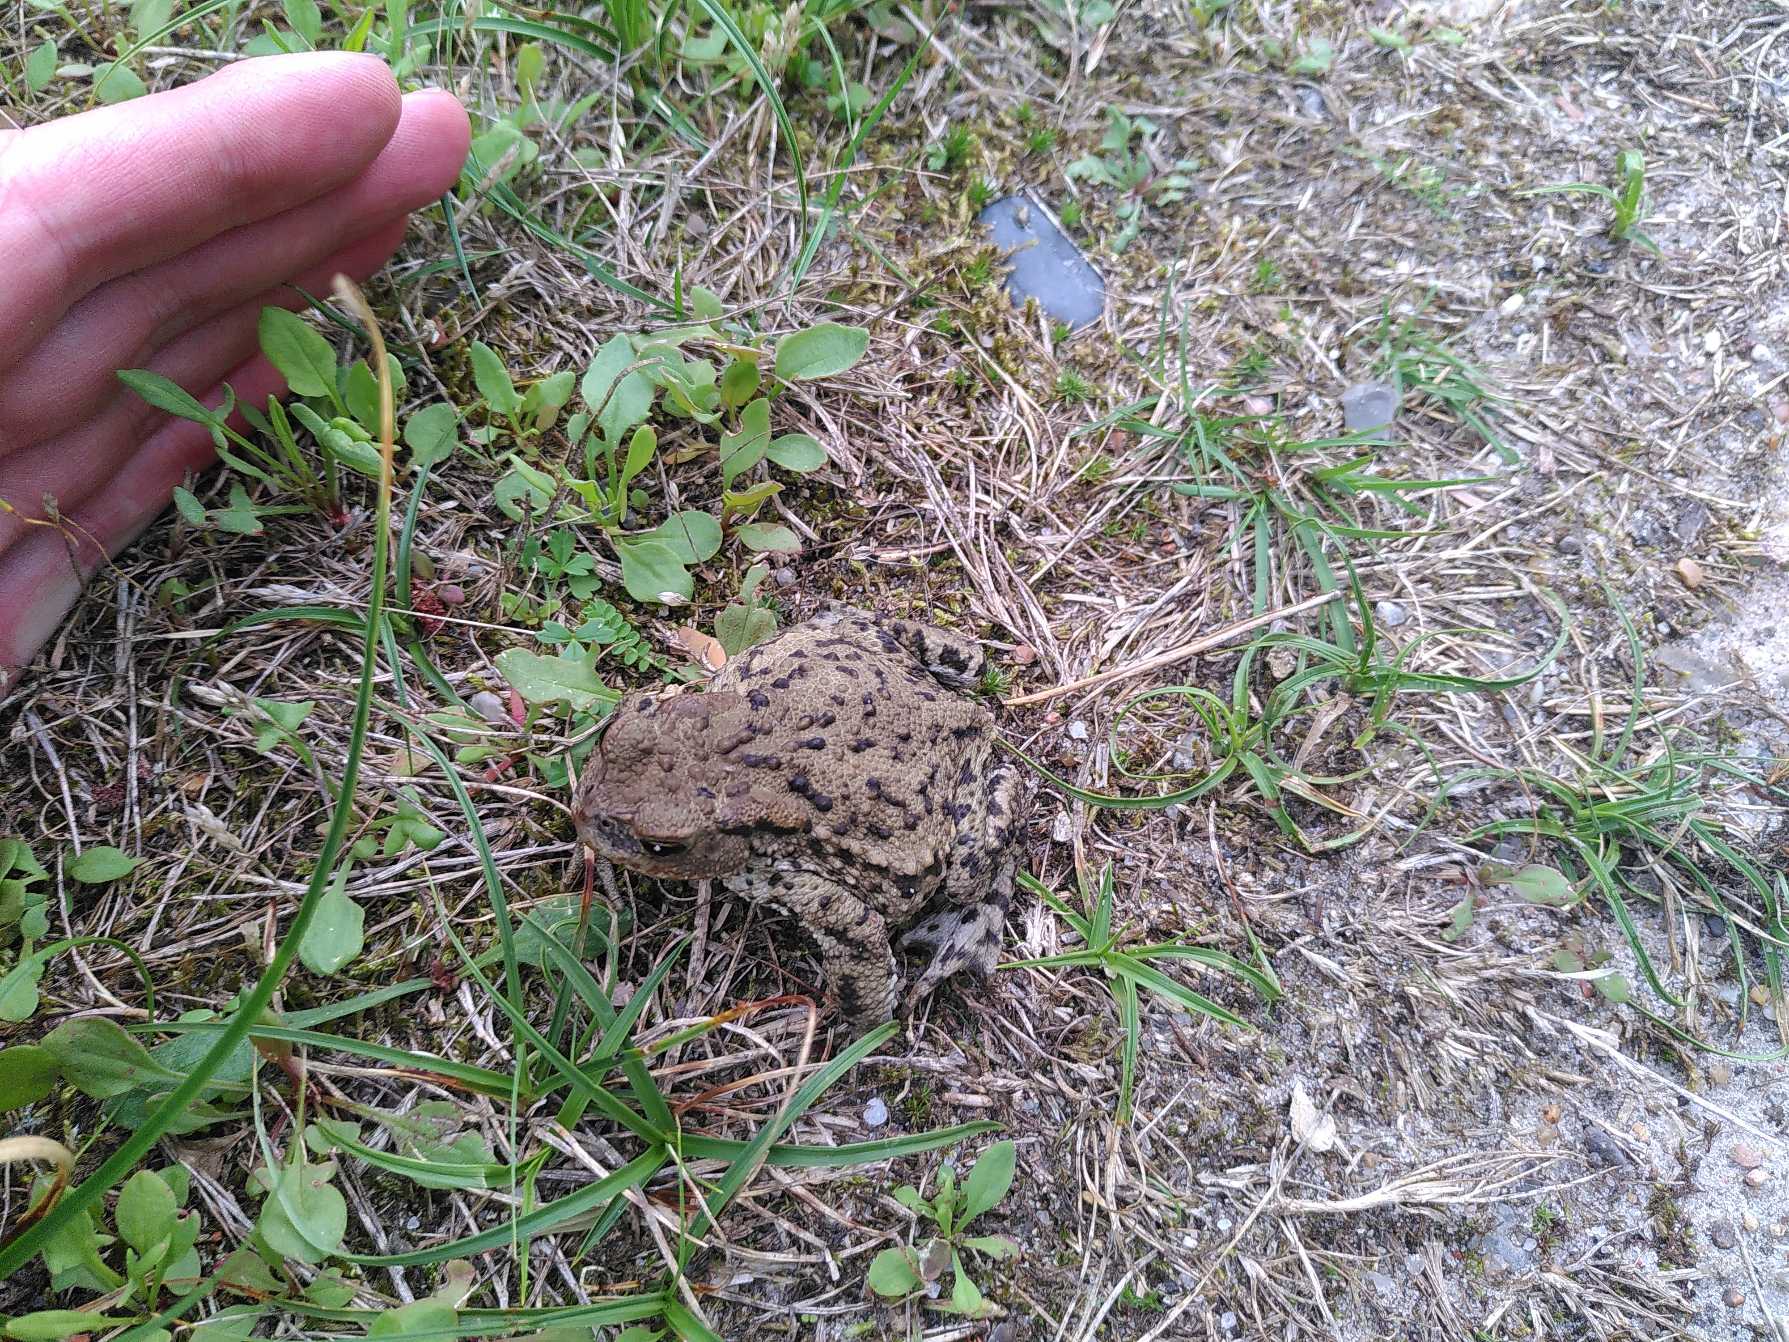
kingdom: Animalia
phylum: Chordata
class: Amphibia
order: Anura
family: Bufonidae
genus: Bufo
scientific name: Bufo bufo
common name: Skrubtudse
